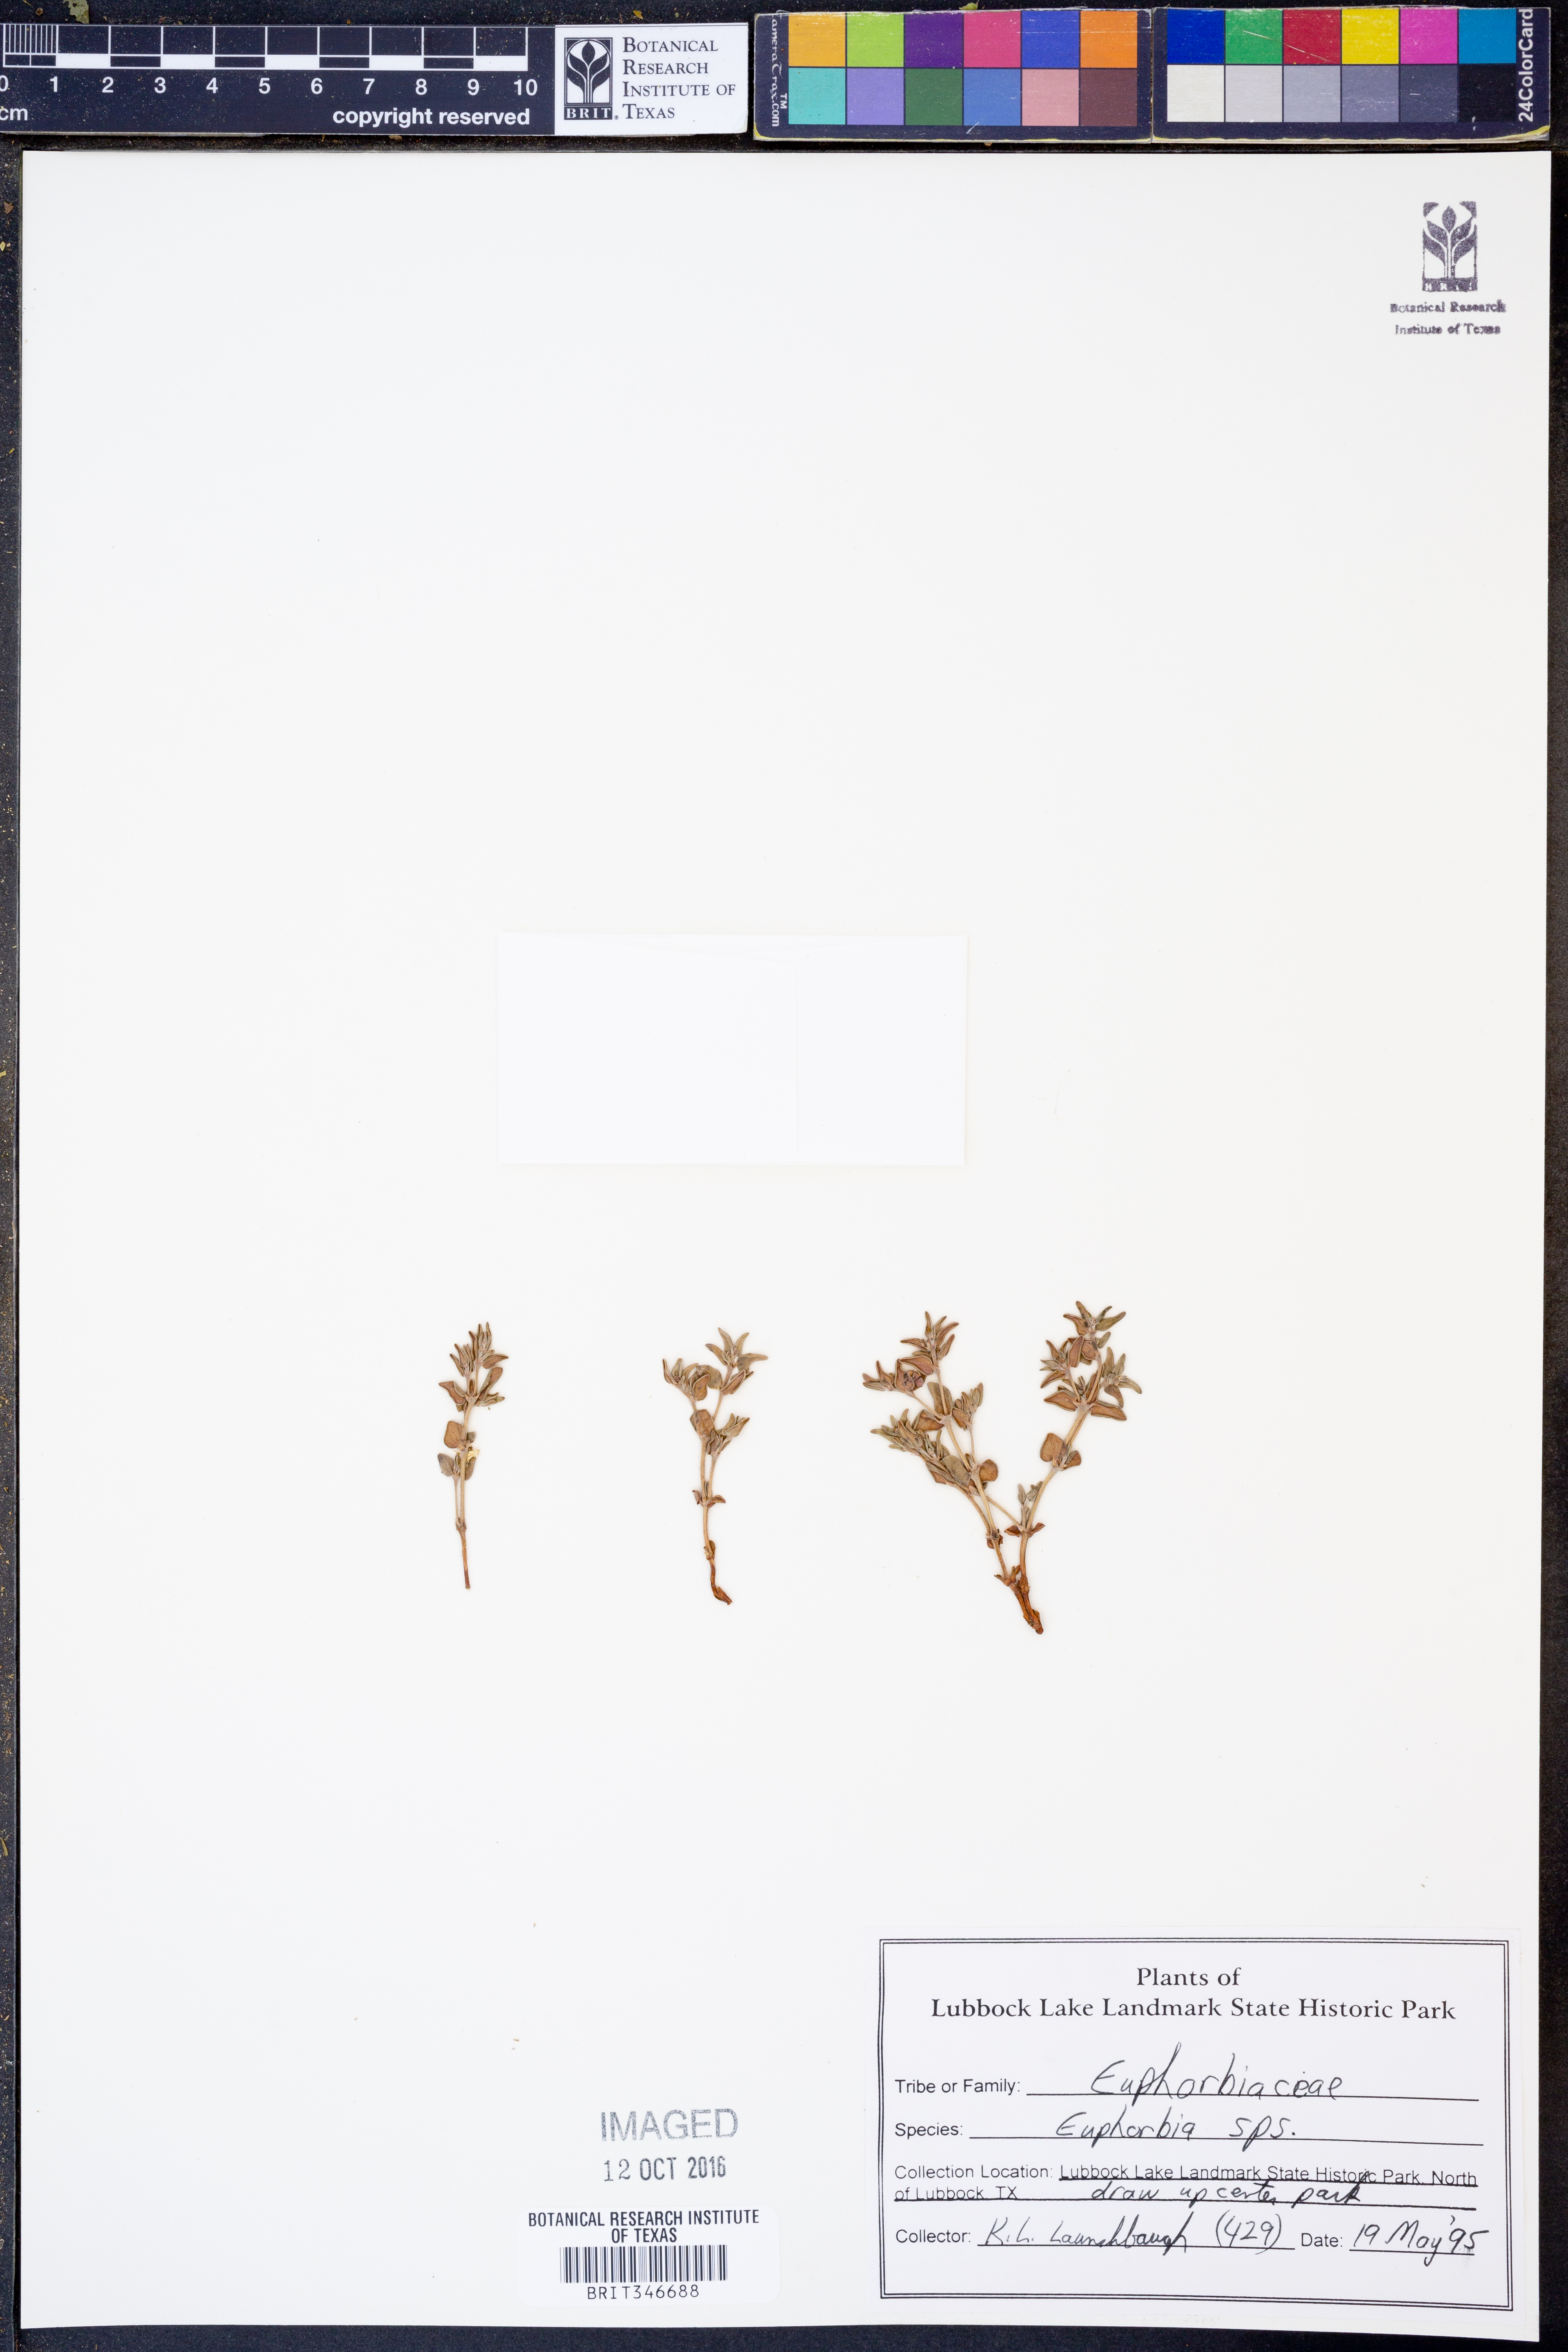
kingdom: Plantae
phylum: Tracheophyta
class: Magnoliopsida
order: Malpighiales
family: Euphorbiaceae
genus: Euphorbia
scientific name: Euphorbia
